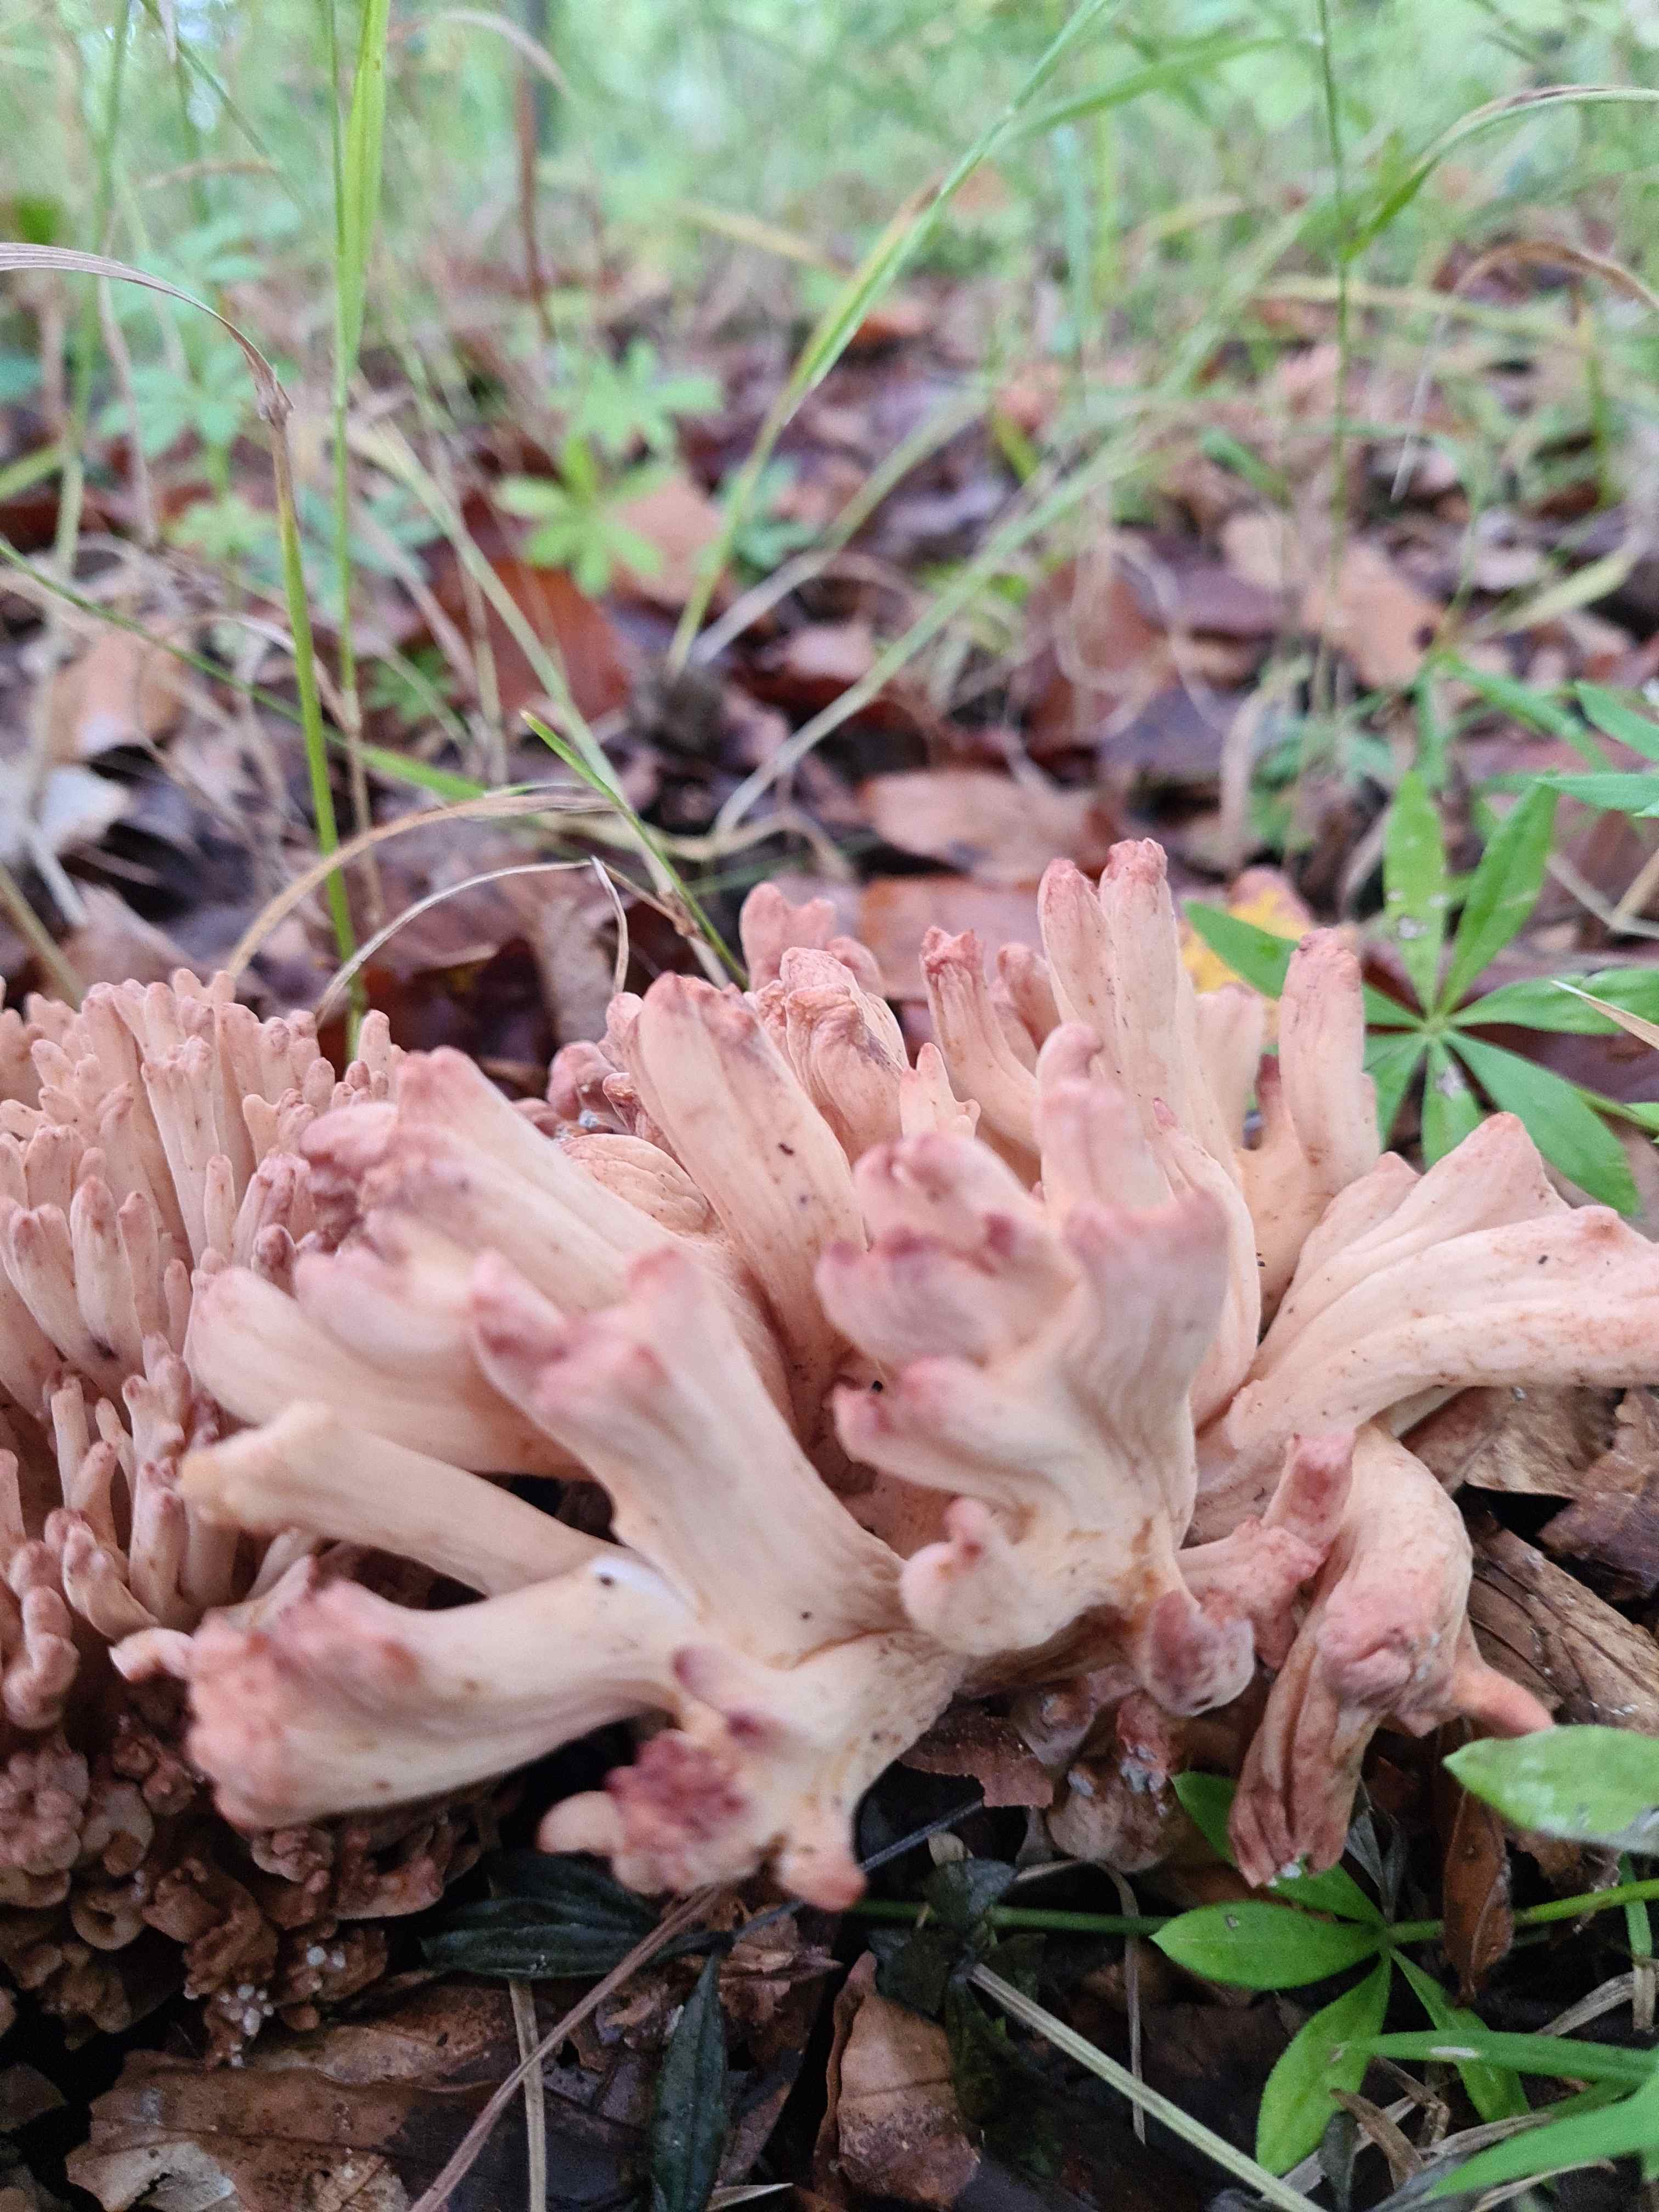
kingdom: Fungi
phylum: Basidiomycota
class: Agaricomycetes
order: Gomphales
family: Gomphaceae
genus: Ramaria
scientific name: Ramaria botrytis
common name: drue-koralsvamp
